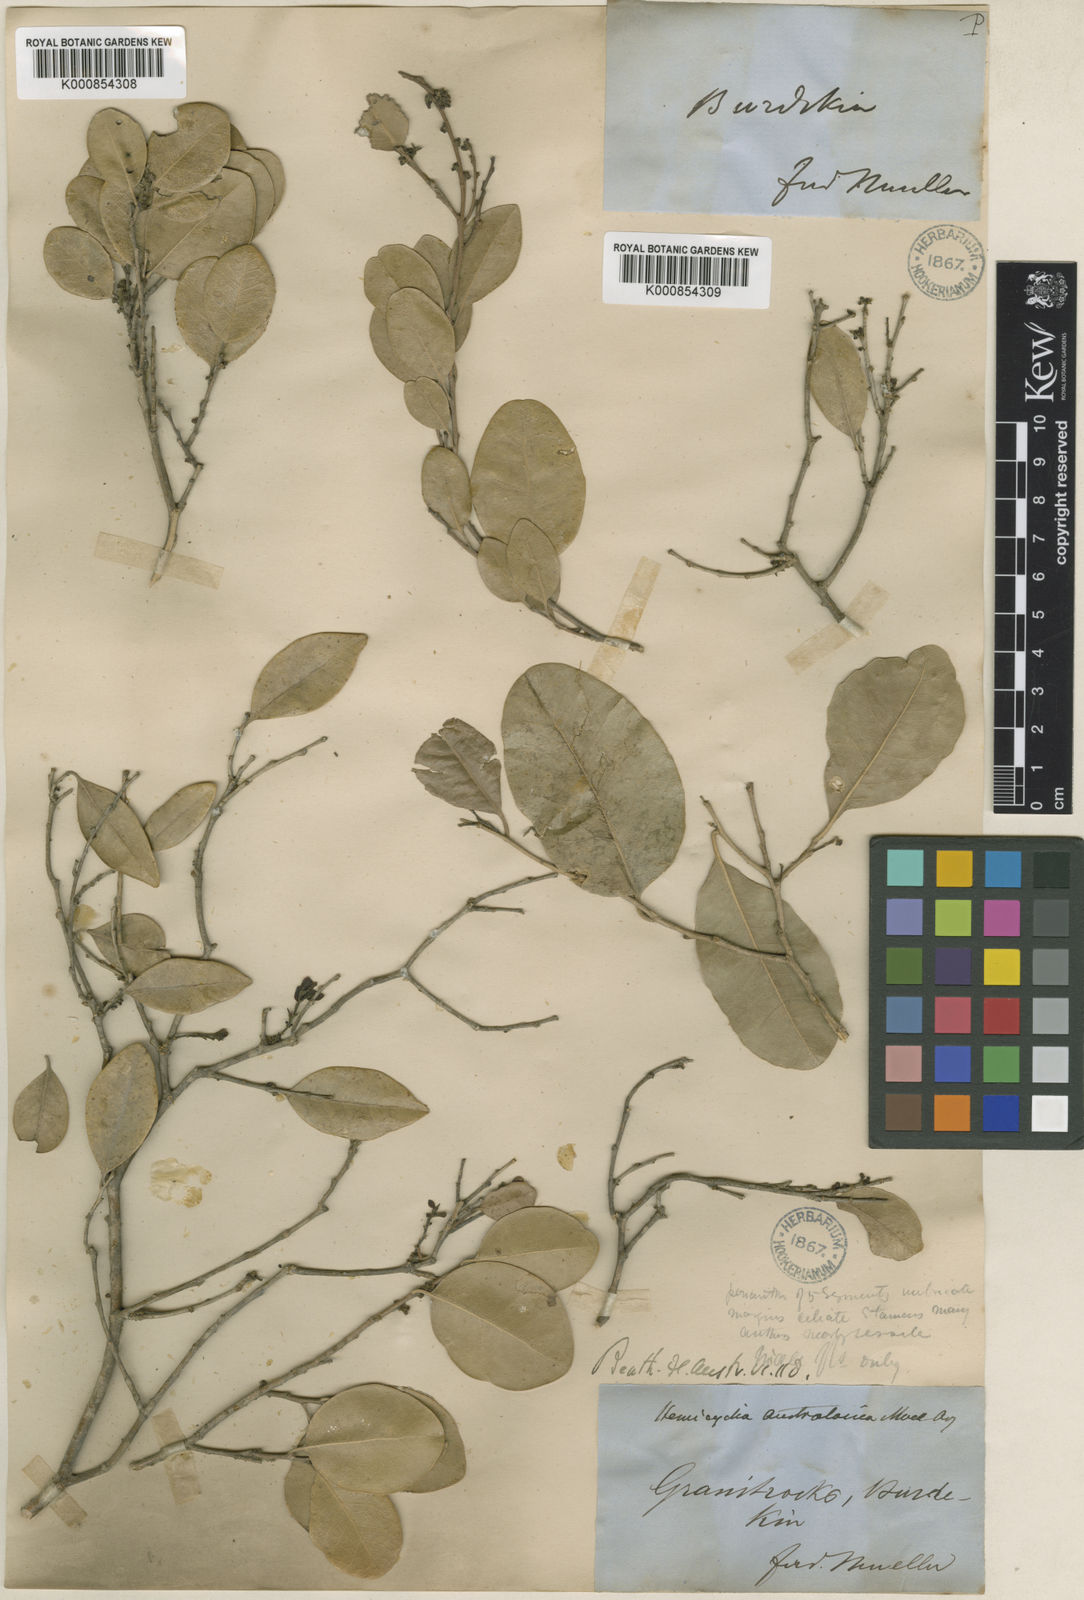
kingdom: Plantae
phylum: Tracheophyta
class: Magnoliopsida
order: Malpighiales
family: Putranjivaceae
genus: Drypetes
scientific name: Drypetes
